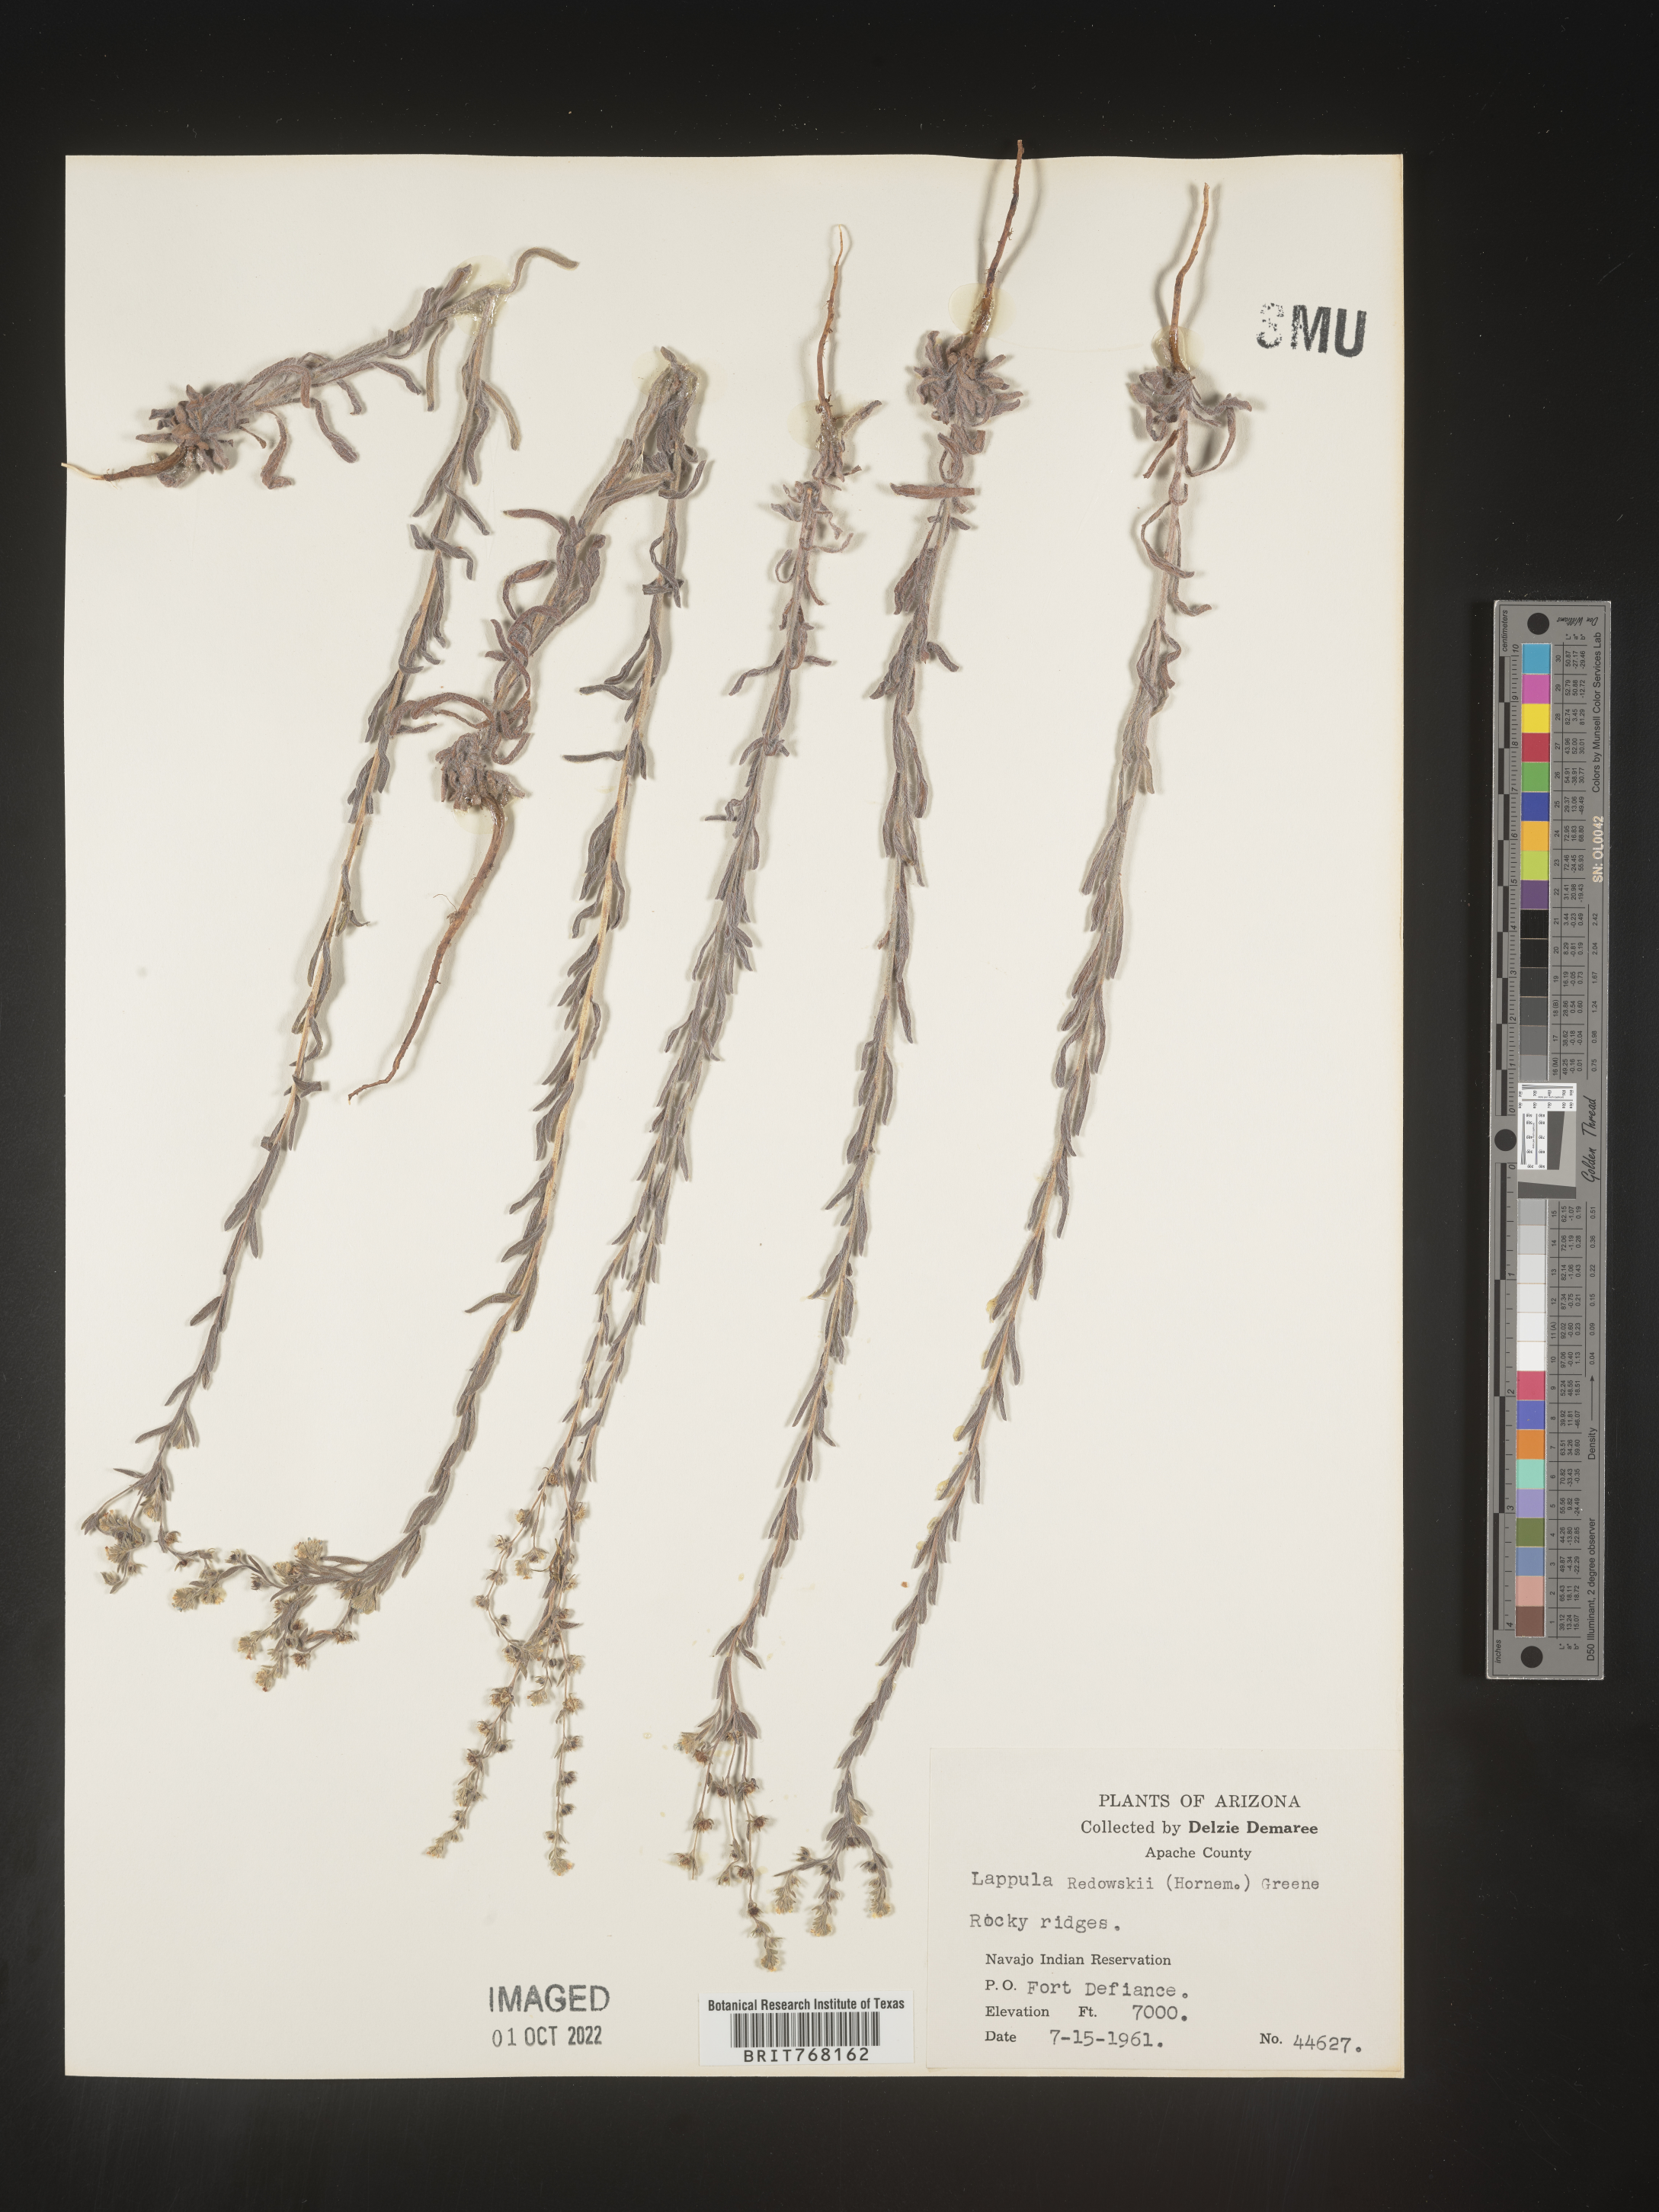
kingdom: Plantae
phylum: Tracheophyta
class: Magnoliopsida
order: Boraginales
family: Boraginaceae
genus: Lappula
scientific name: Lappula redowskii
